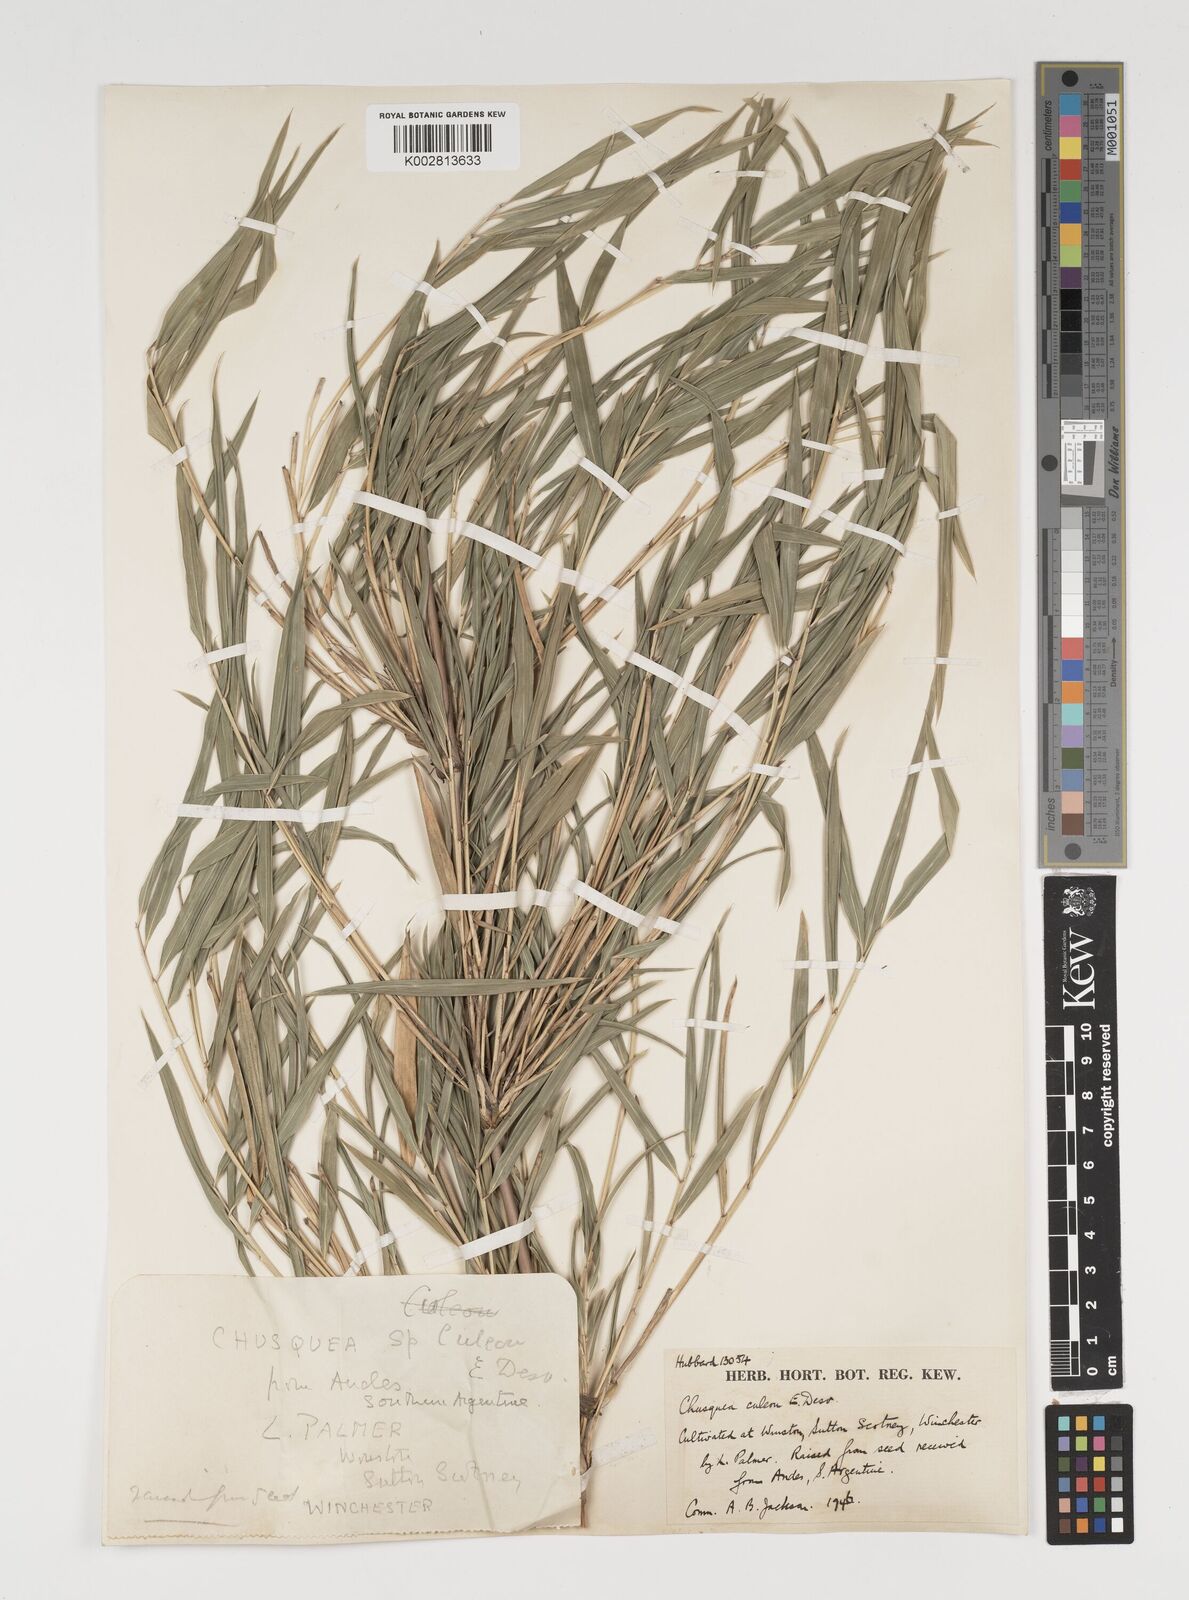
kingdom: Plantae
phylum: Tracheophyta
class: Liliopsida
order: Poales
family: Poaceae
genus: Chusquea
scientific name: Chusquea culeou
